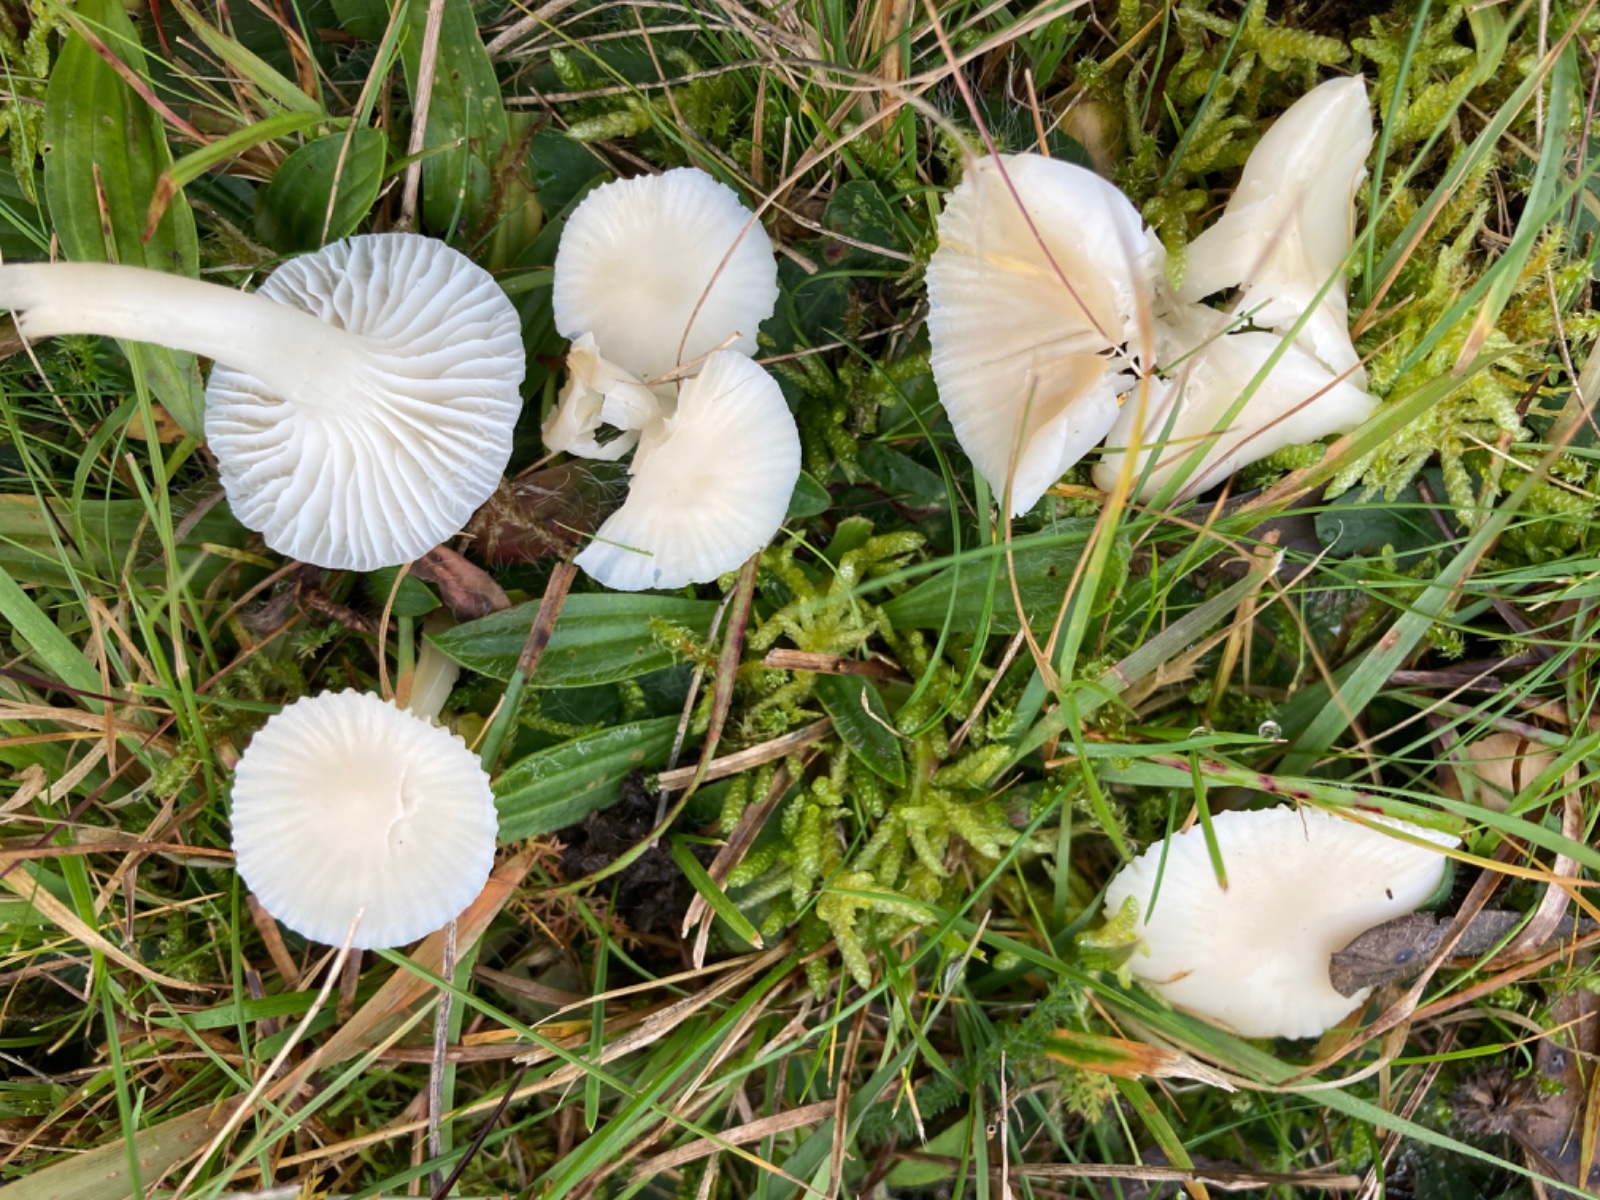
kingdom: Fungi
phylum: Basidiomycota
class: Agaricomycetes
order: Agaricales
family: Hygrophoraceae
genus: Cuphophyllus
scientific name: Cuphophyllus virgineus
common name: snehvid vokshat
